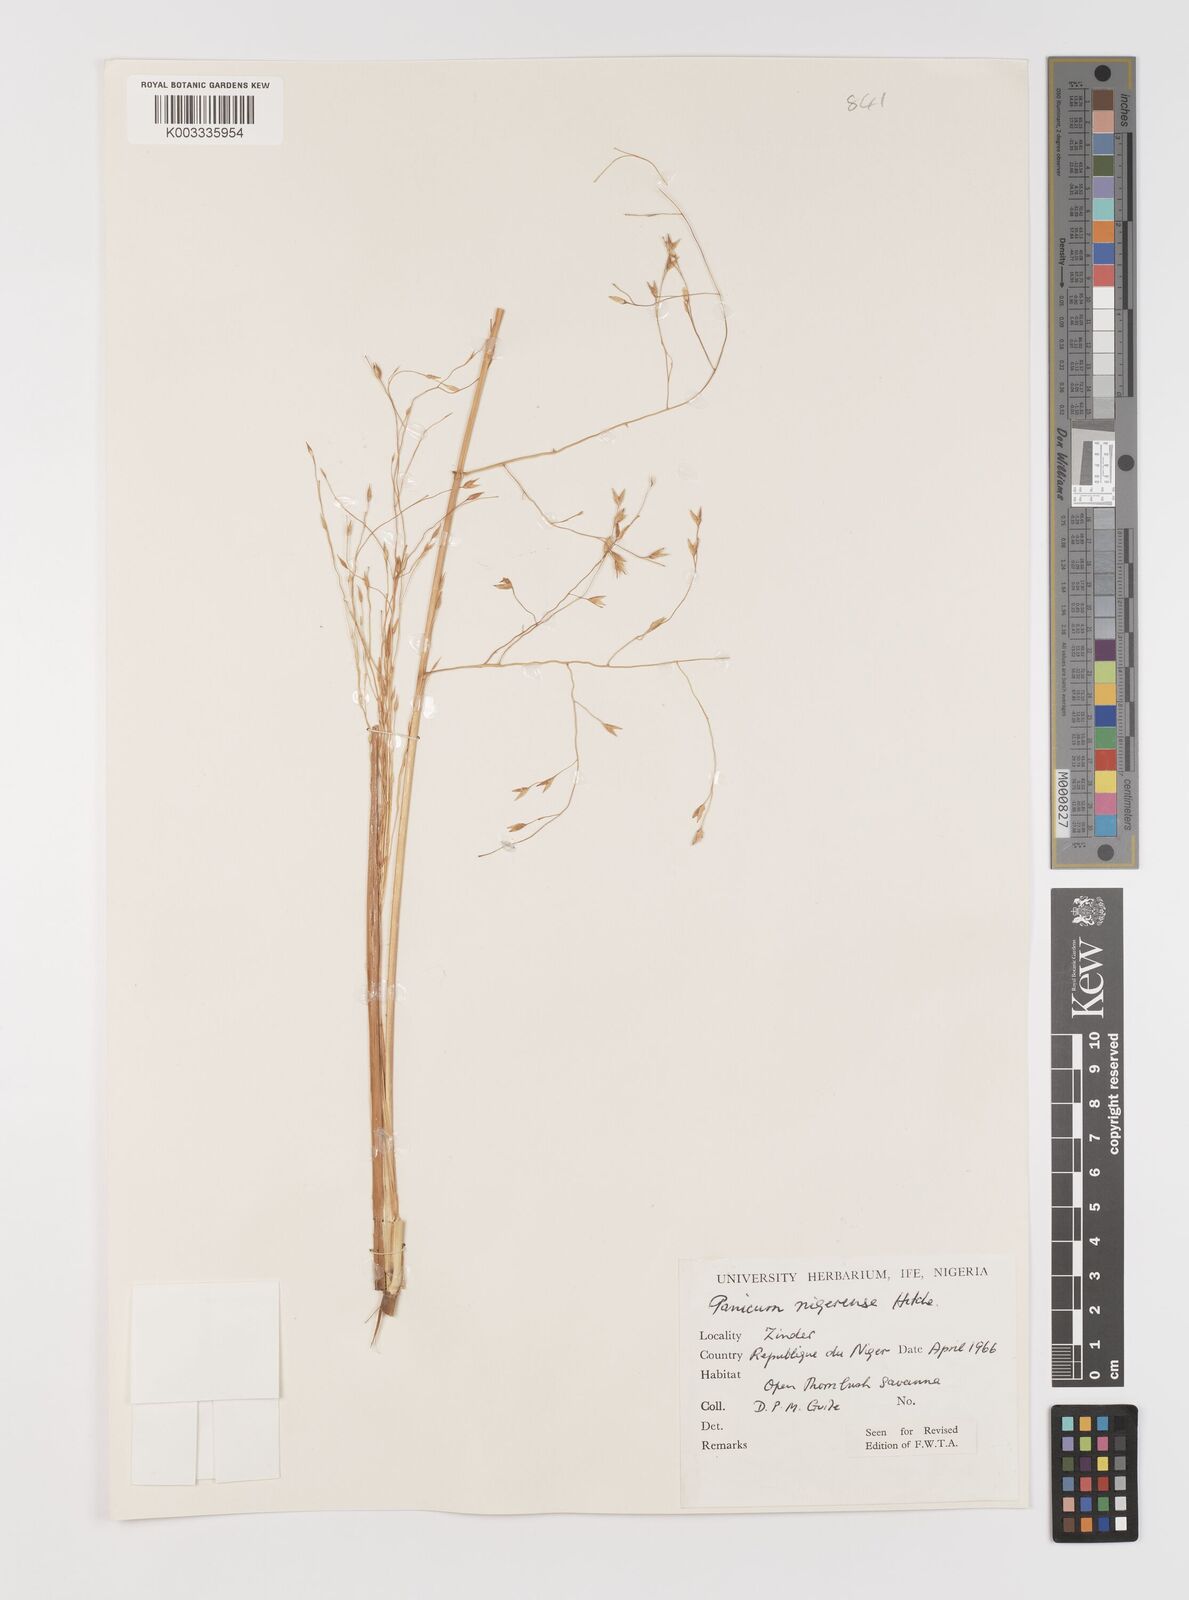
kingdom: Plantae
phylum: Tracheophyta
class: Liliopsida
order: Poales
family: Poaceae
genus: Panicum
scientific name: Panicum nigerense
